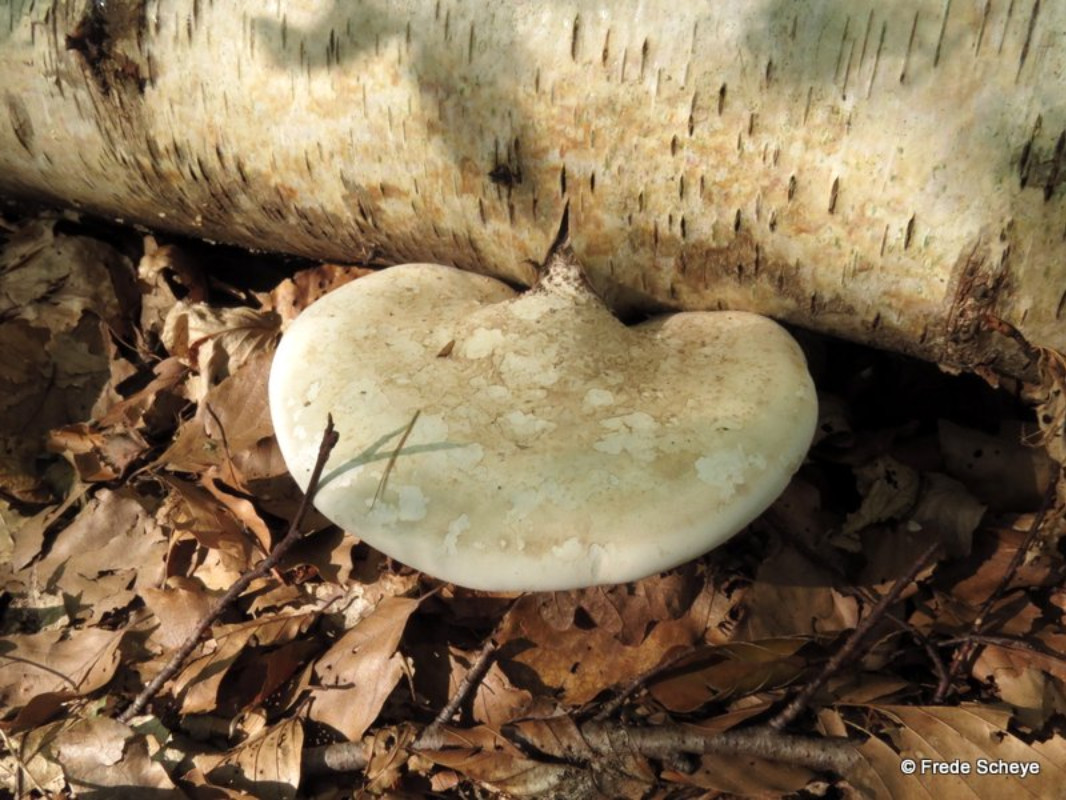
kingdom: Fungi
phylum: Basidiomycota
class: Agaricomycetes
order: Polyporales
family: Fomitopsidaceae
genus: Fomitopsis
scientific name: Fomitopsis betulina
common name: birkeporesvamp
